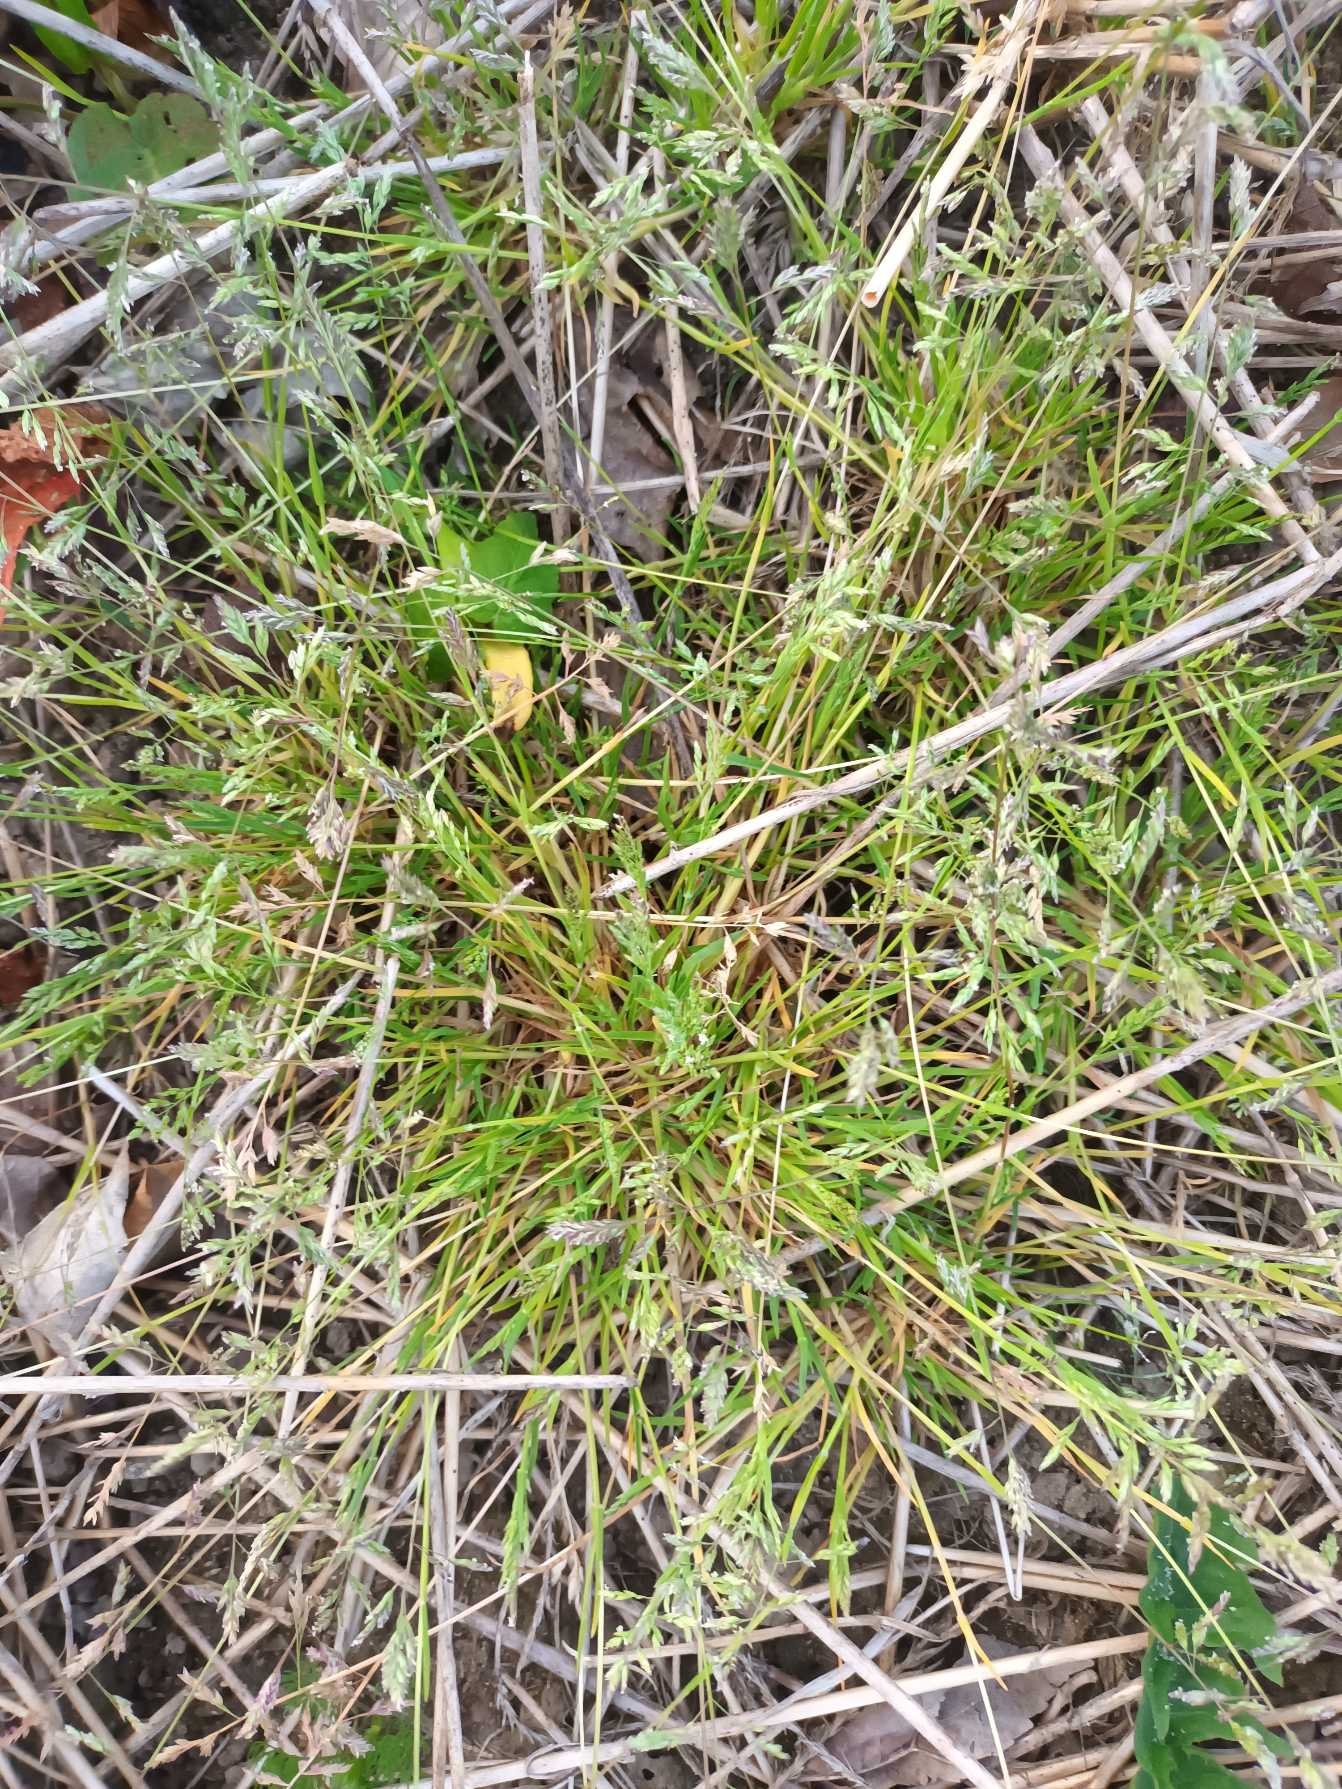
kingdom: Plantae
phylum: Tracheophyta
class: Liliopsida
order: Poales
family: Poaceae
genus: Poa
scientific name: Poa annua
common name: Enårig rapgræs
